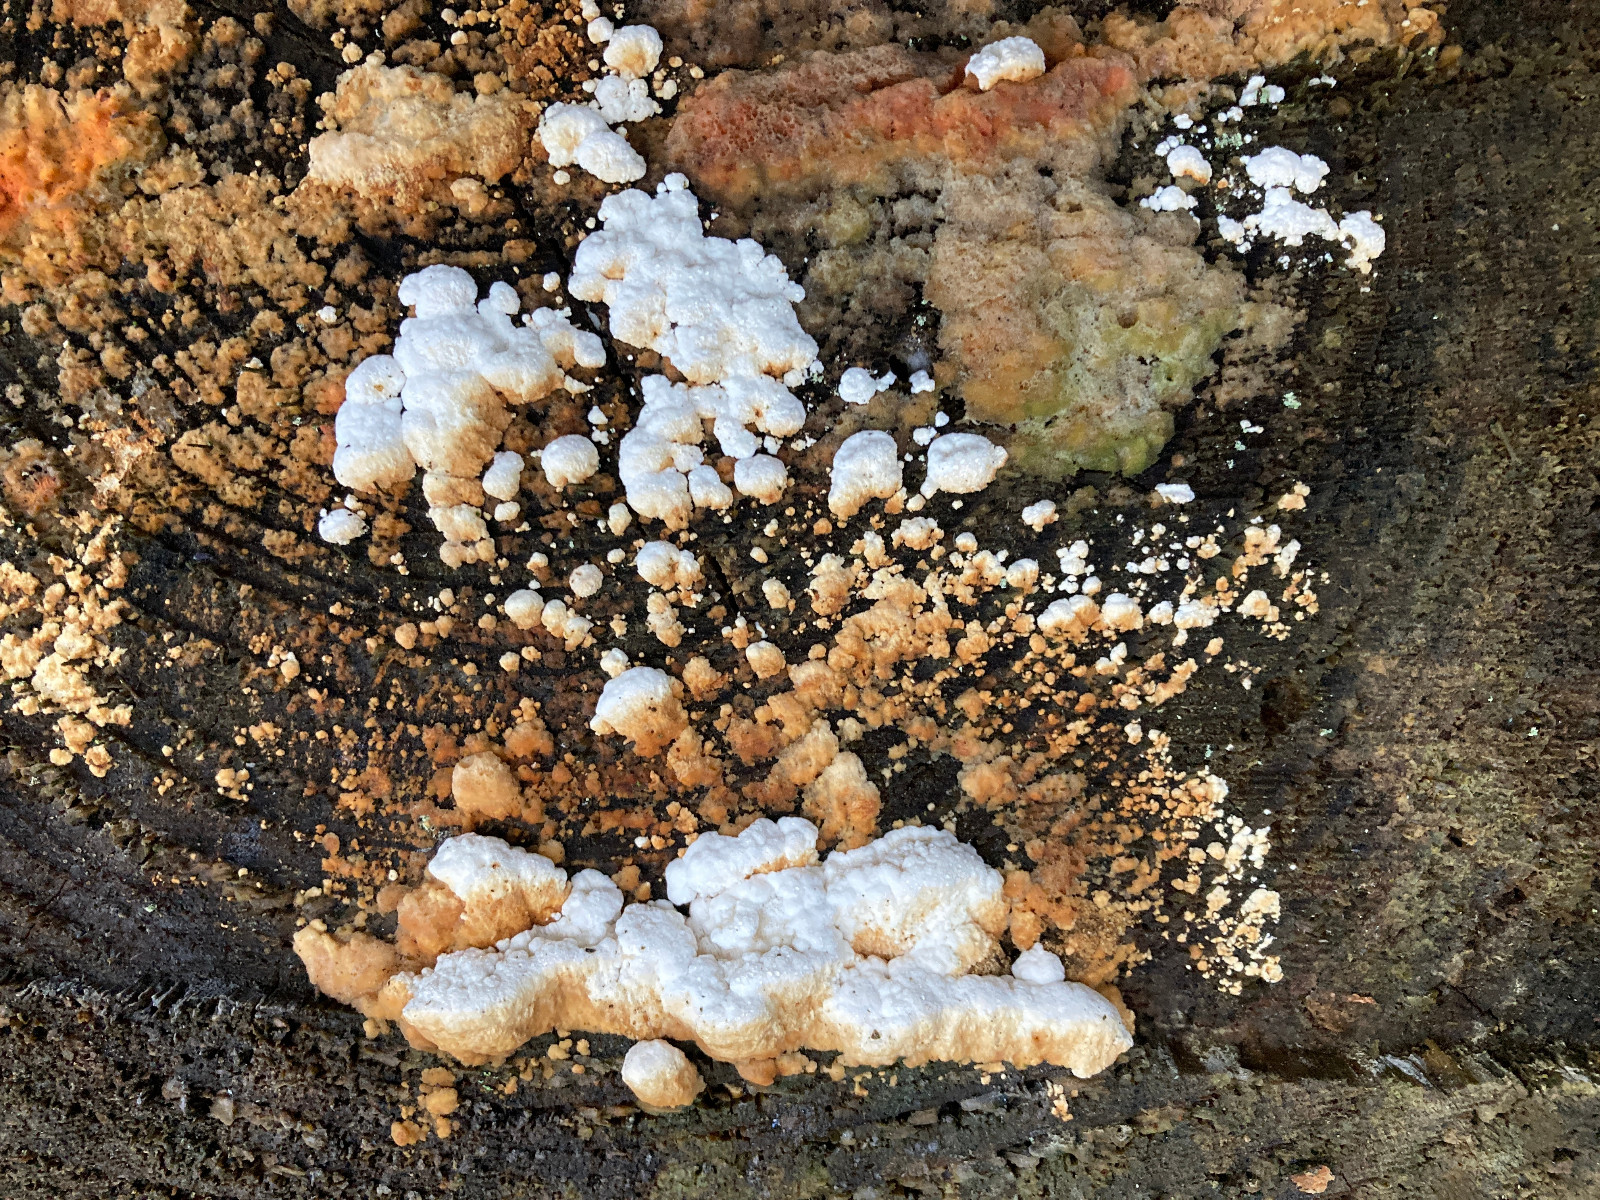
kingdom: Fungi
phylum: Basidiomycota
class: Agaricomycetes
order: Polyporales
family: Fomitopsidaceae
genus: Neoantrodia
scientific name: Neoantrodia serialis
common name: række-sejporesvamp
